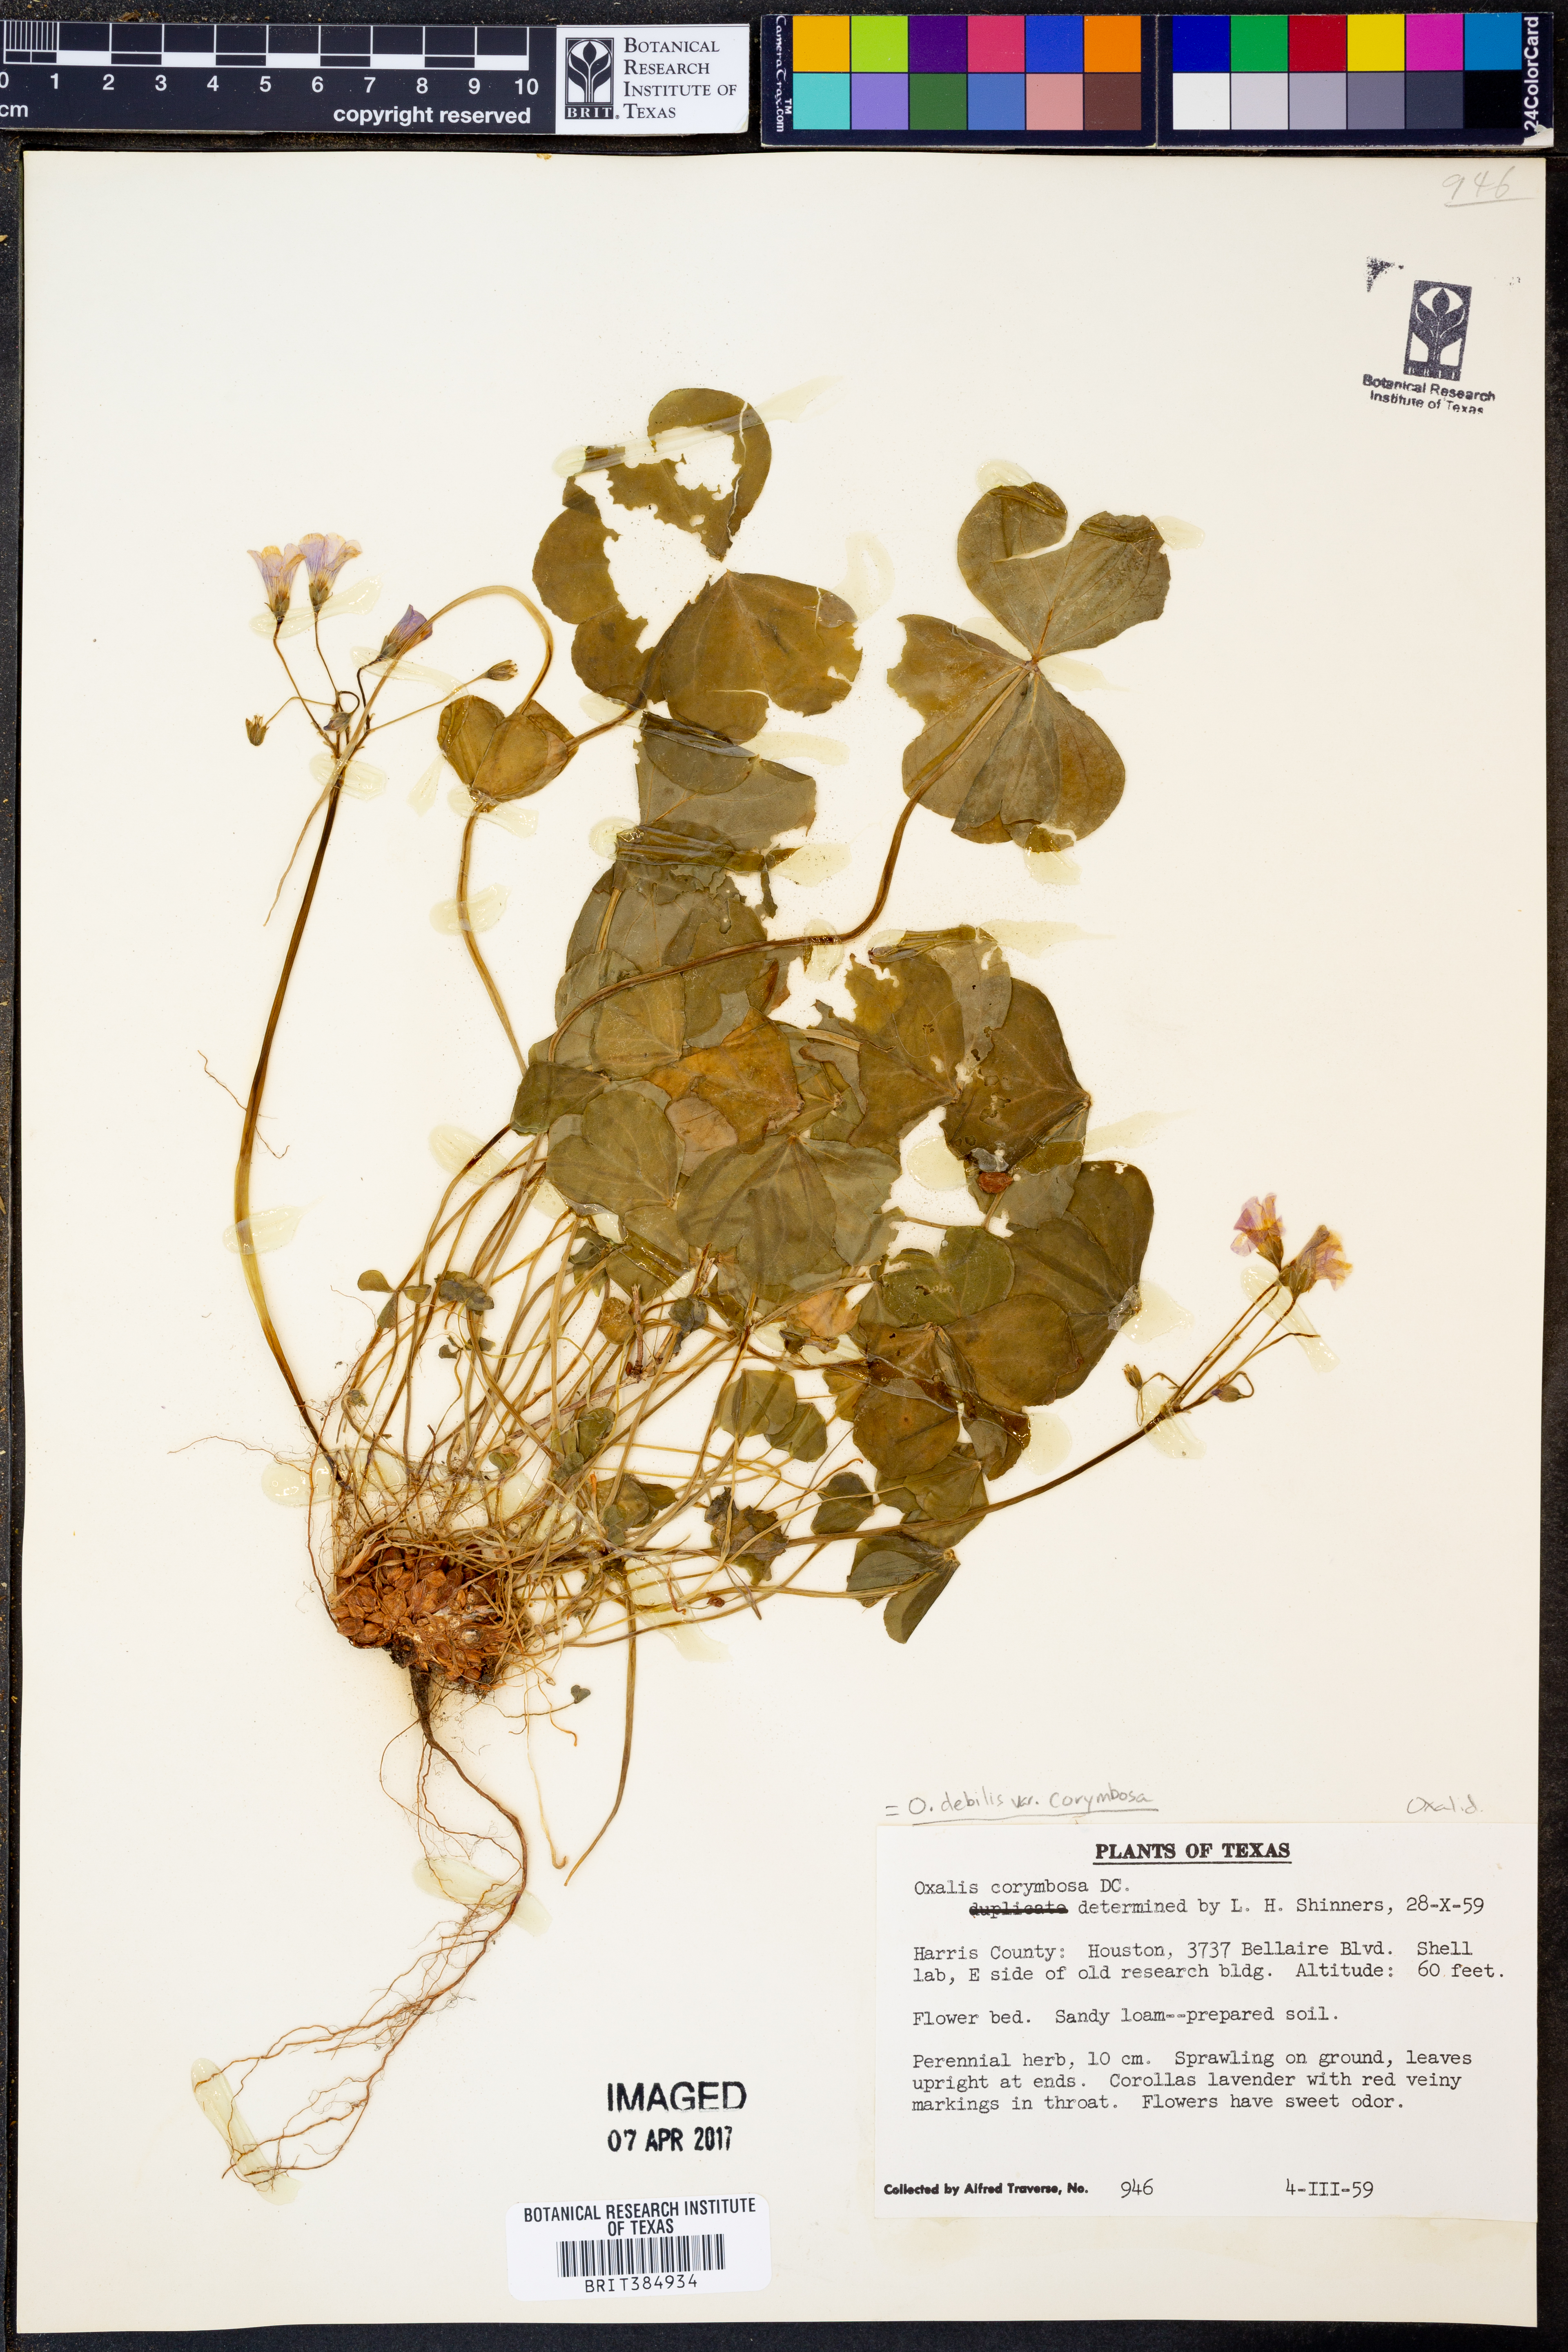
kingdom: Plantae
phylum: Tracheophyta
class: Magnoliopsida
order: Oxalidales
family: Oxalidaceae
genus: Oxalis
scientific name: Oxalis debilis
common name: Large-flowered pink-sorrel
